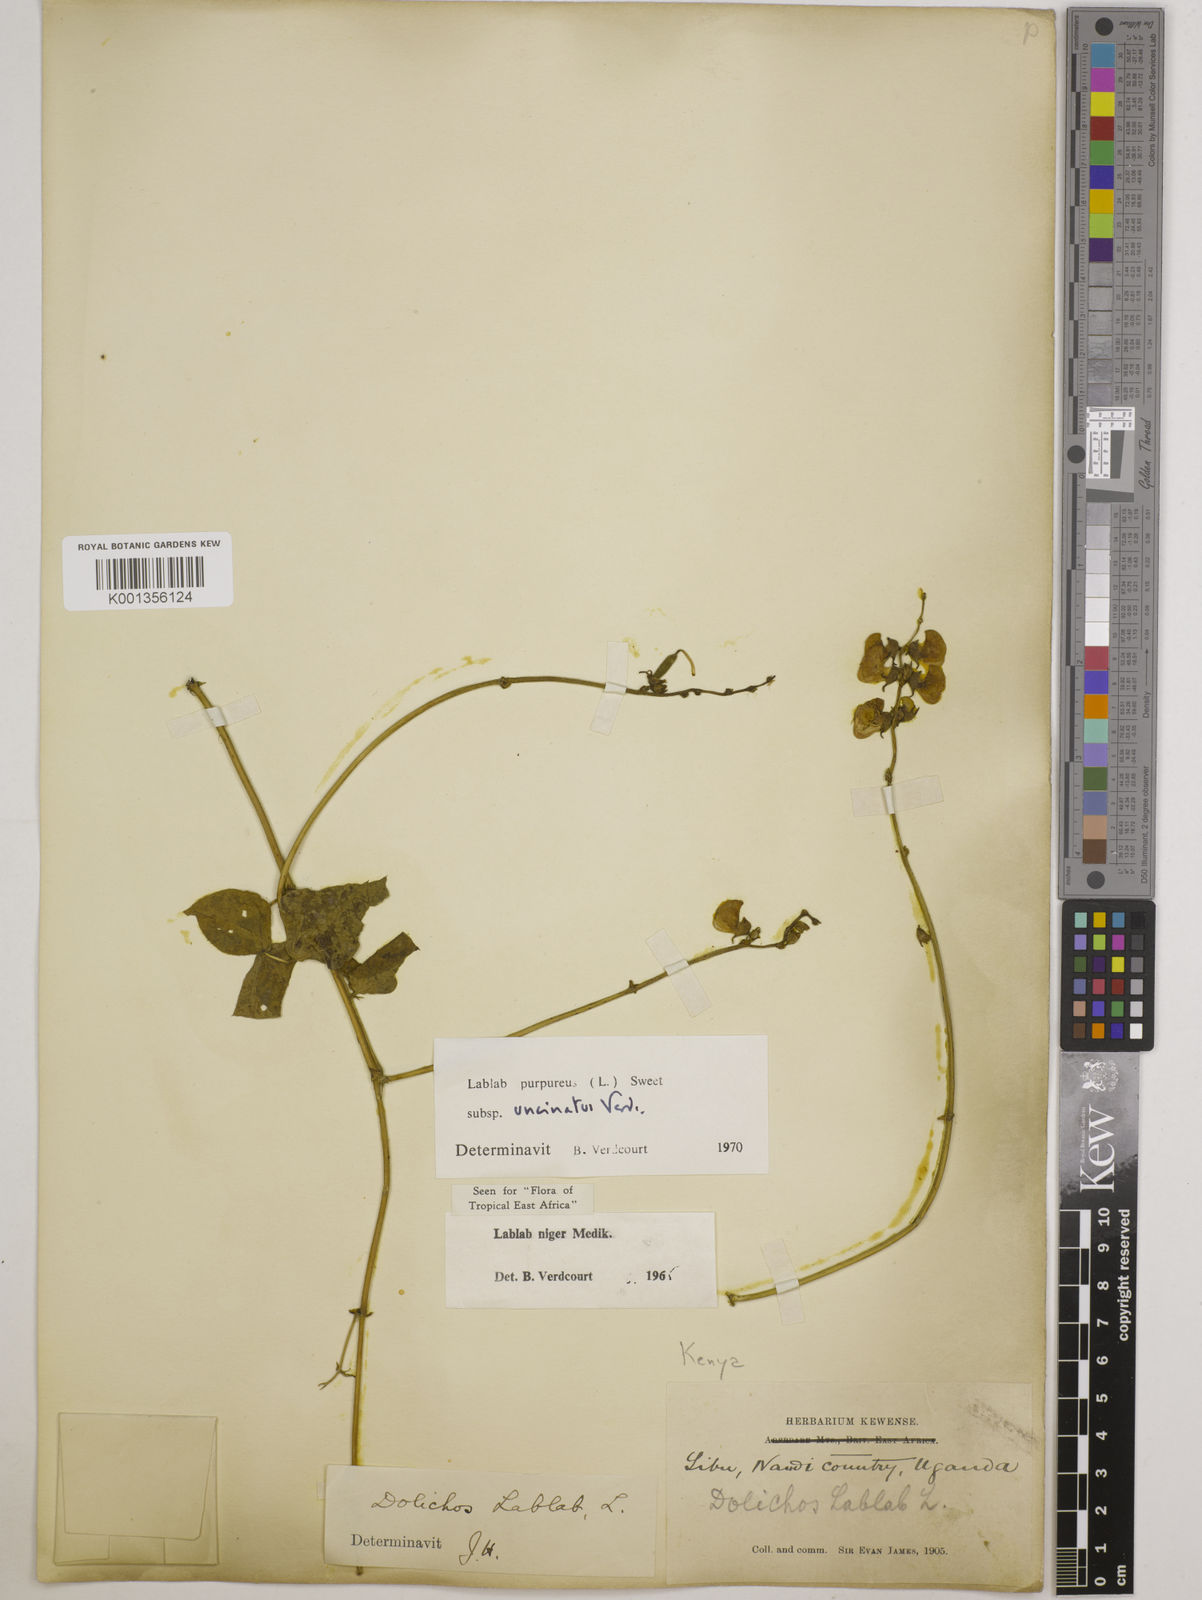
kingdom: Plantae
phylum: Tracheophyta
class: Magnoliopsida
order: Fabales
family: Fabaceae
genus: Lablab
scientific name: Lablab purpureus
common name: Lablab-bean
